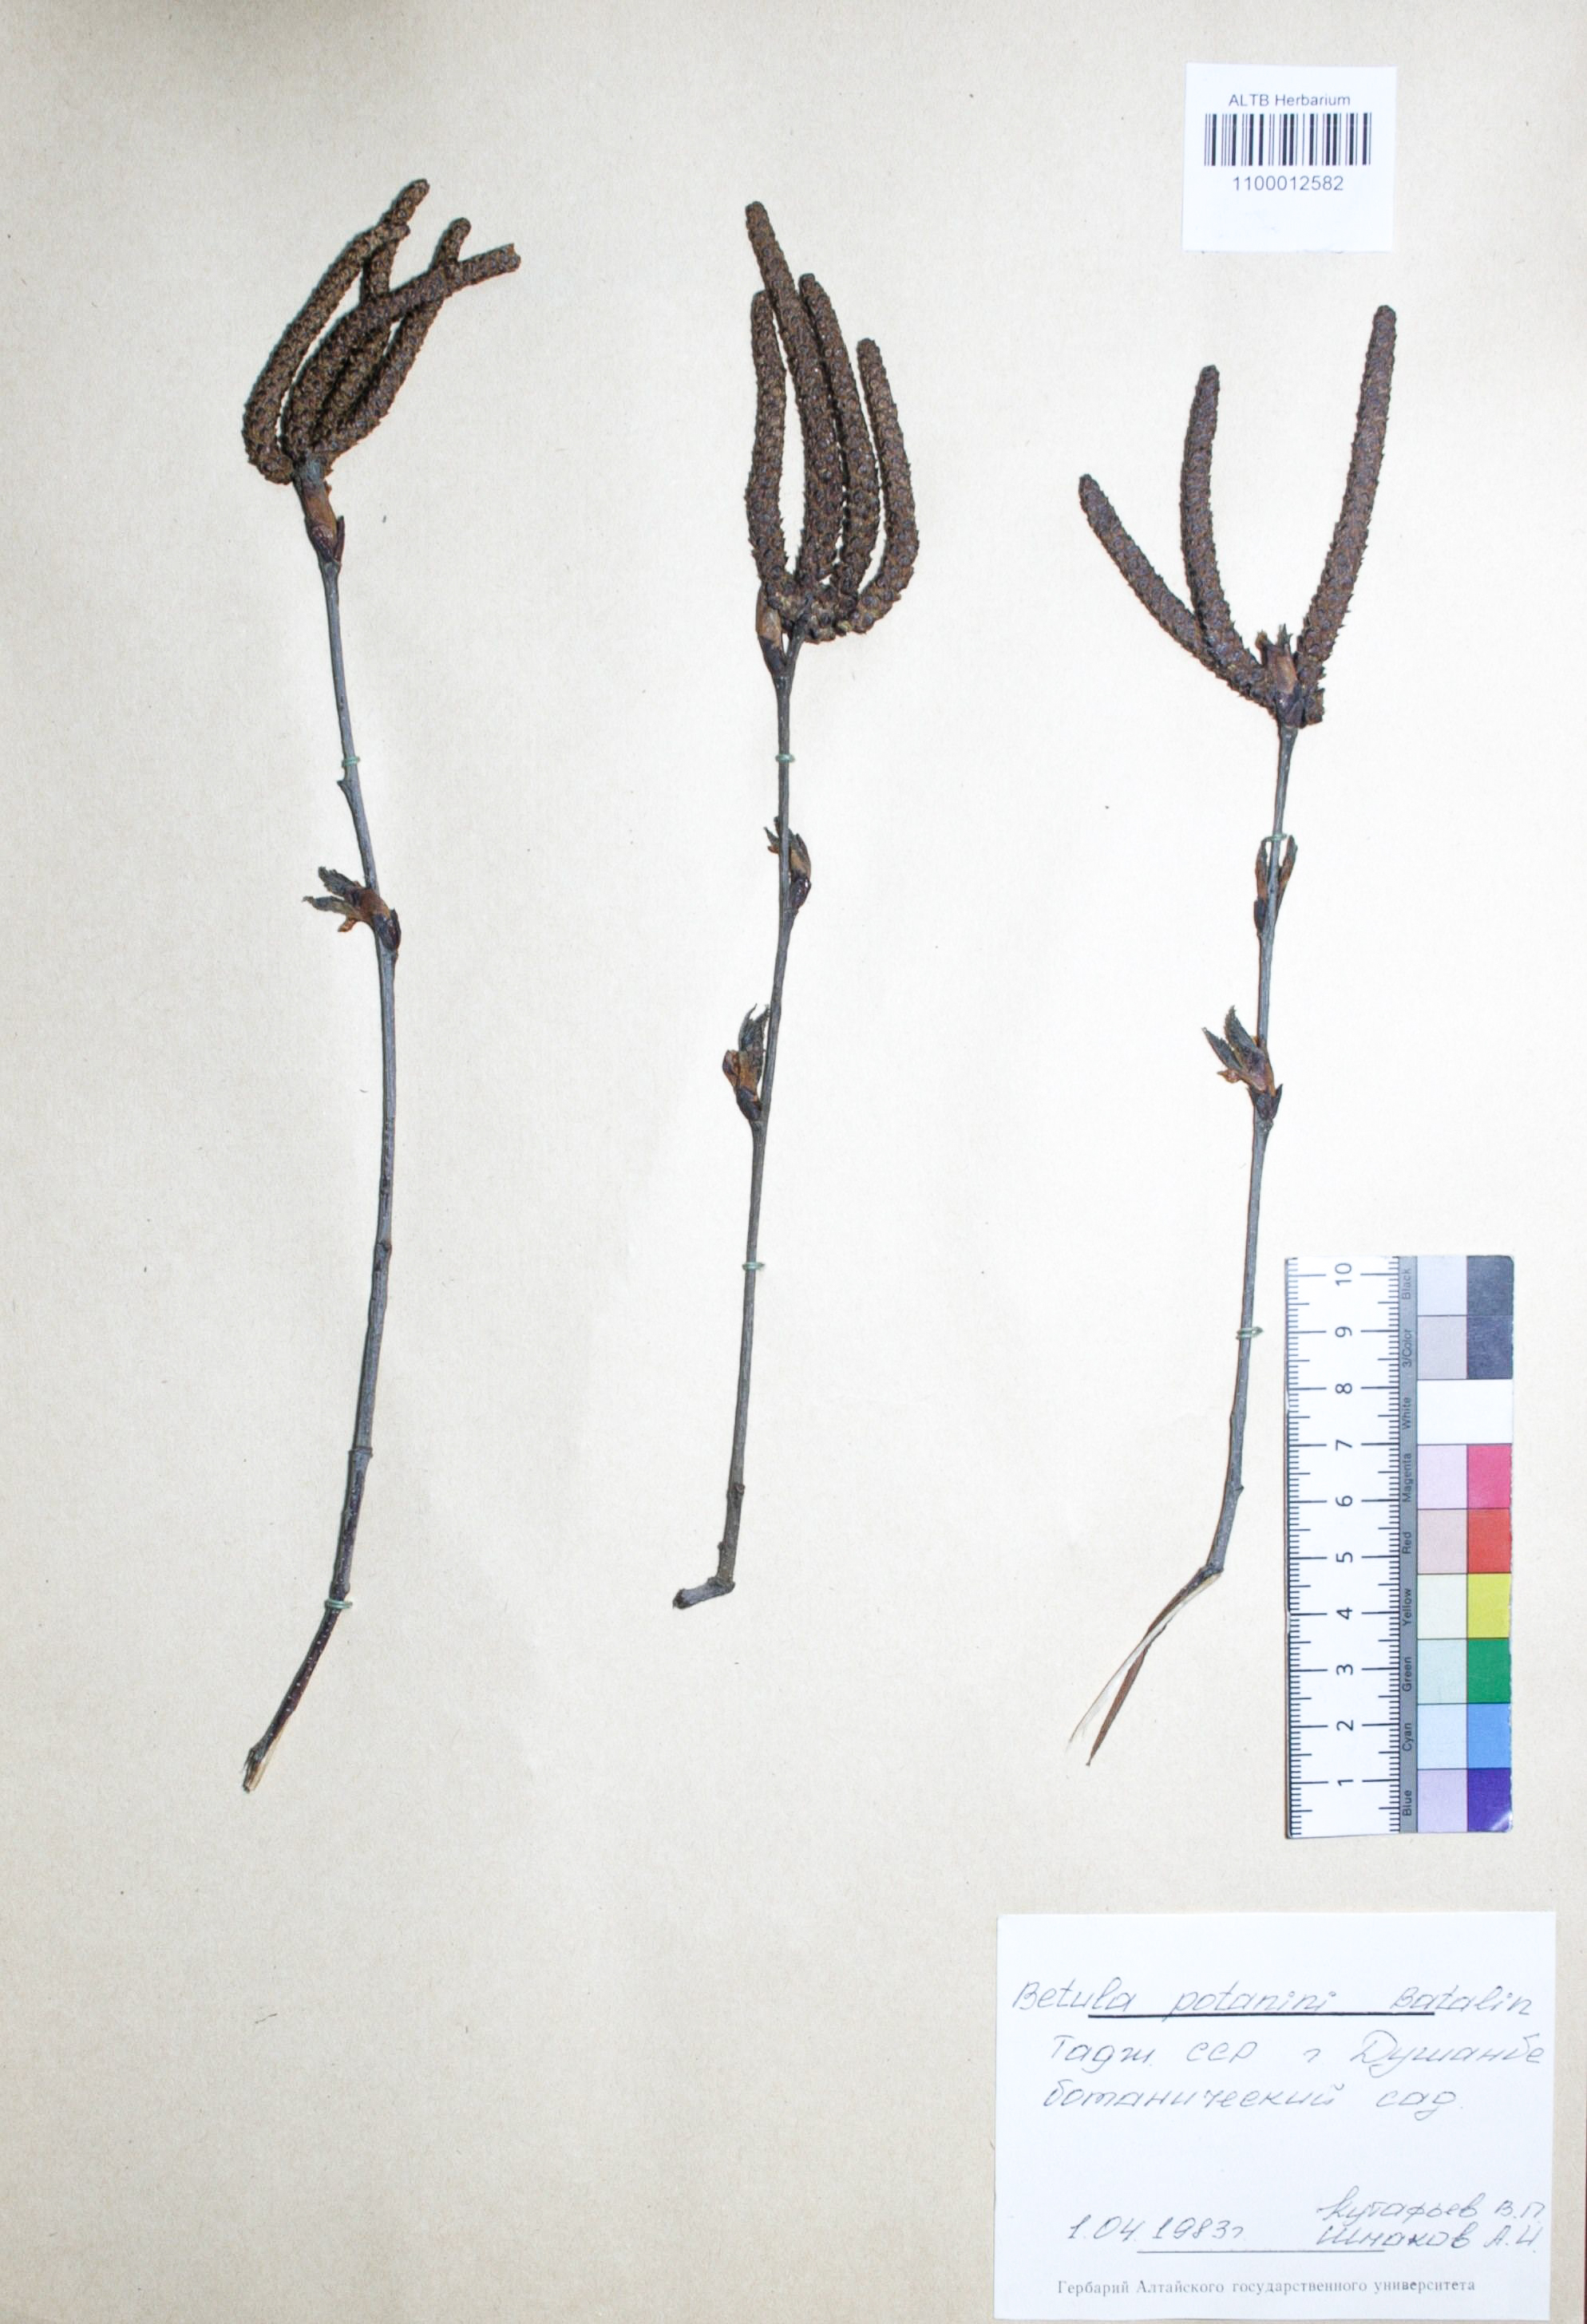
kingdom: Plantae
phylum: Tracheophyta
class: Magnoliopsida
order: Fagales
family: Betulaceae
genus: Betula
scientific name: Betula potaninii
